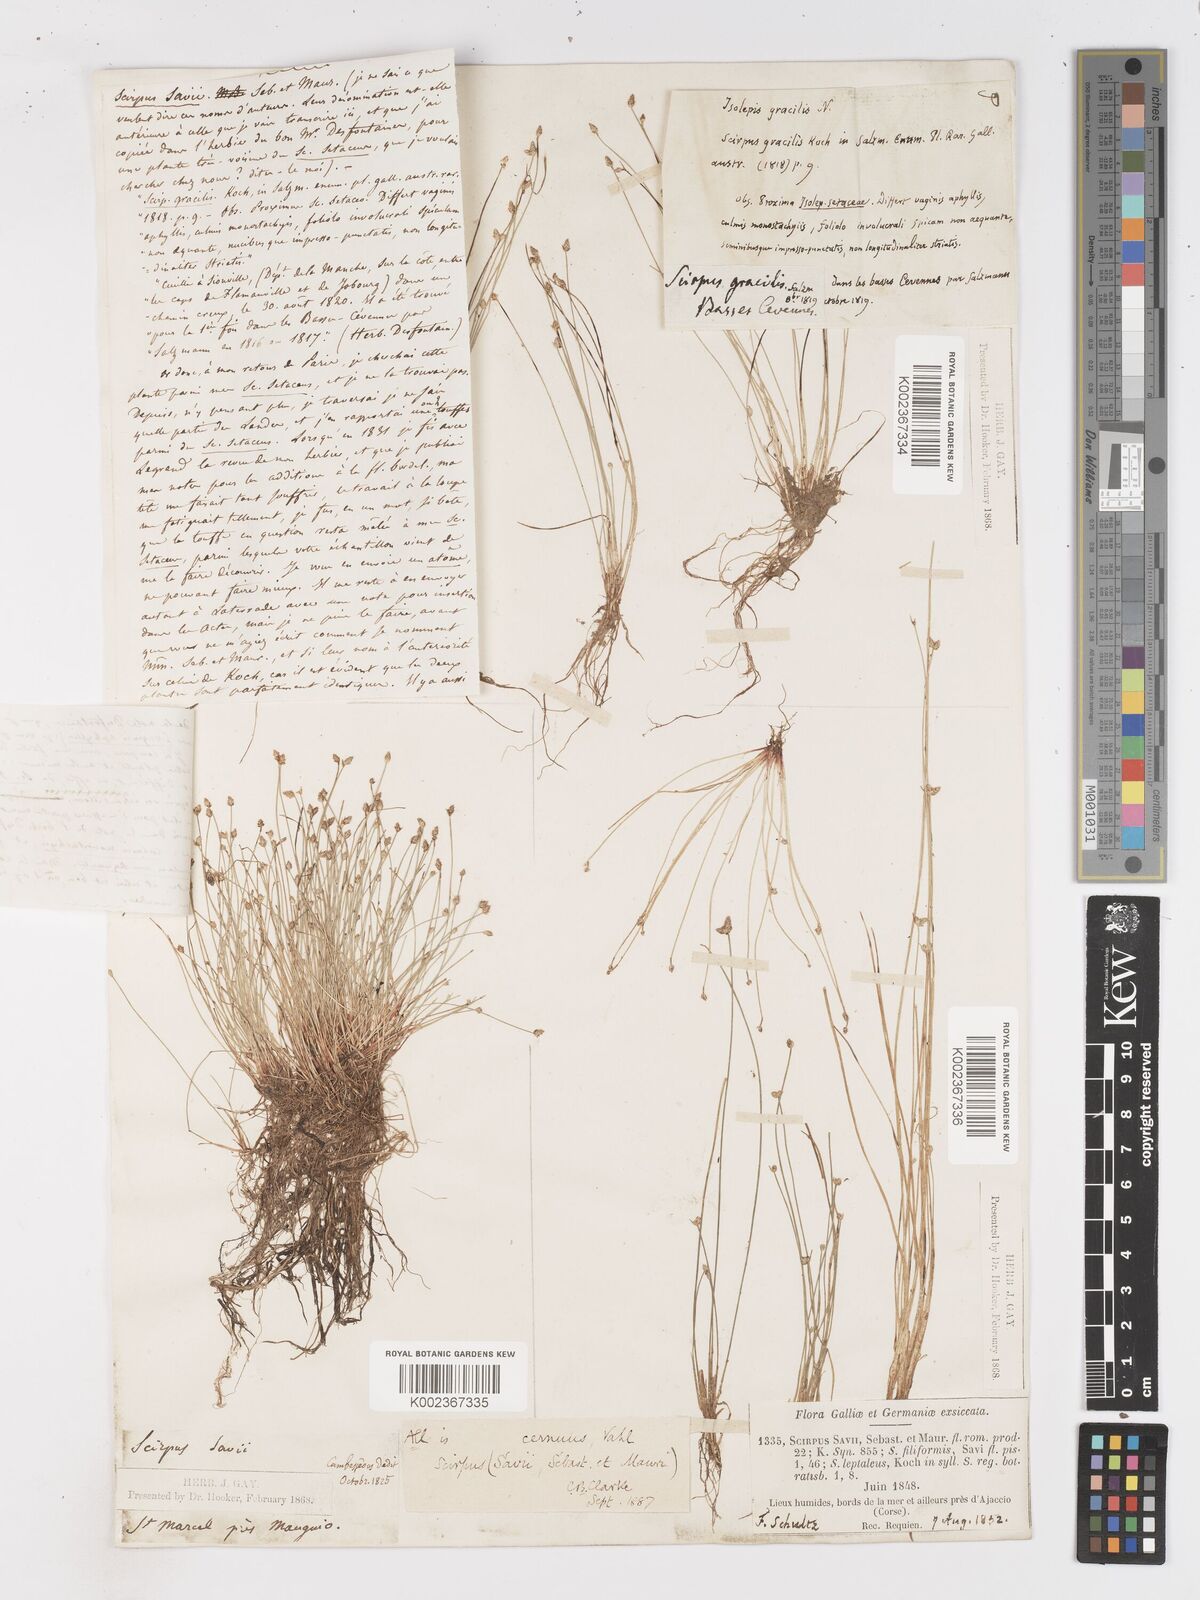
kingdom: Plantae
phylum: Tracheophyta
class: Liliopsida
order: Poales
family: Cyperaceae
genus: Isolepis
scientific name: Isolepis cernua
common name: Slender club-rush
